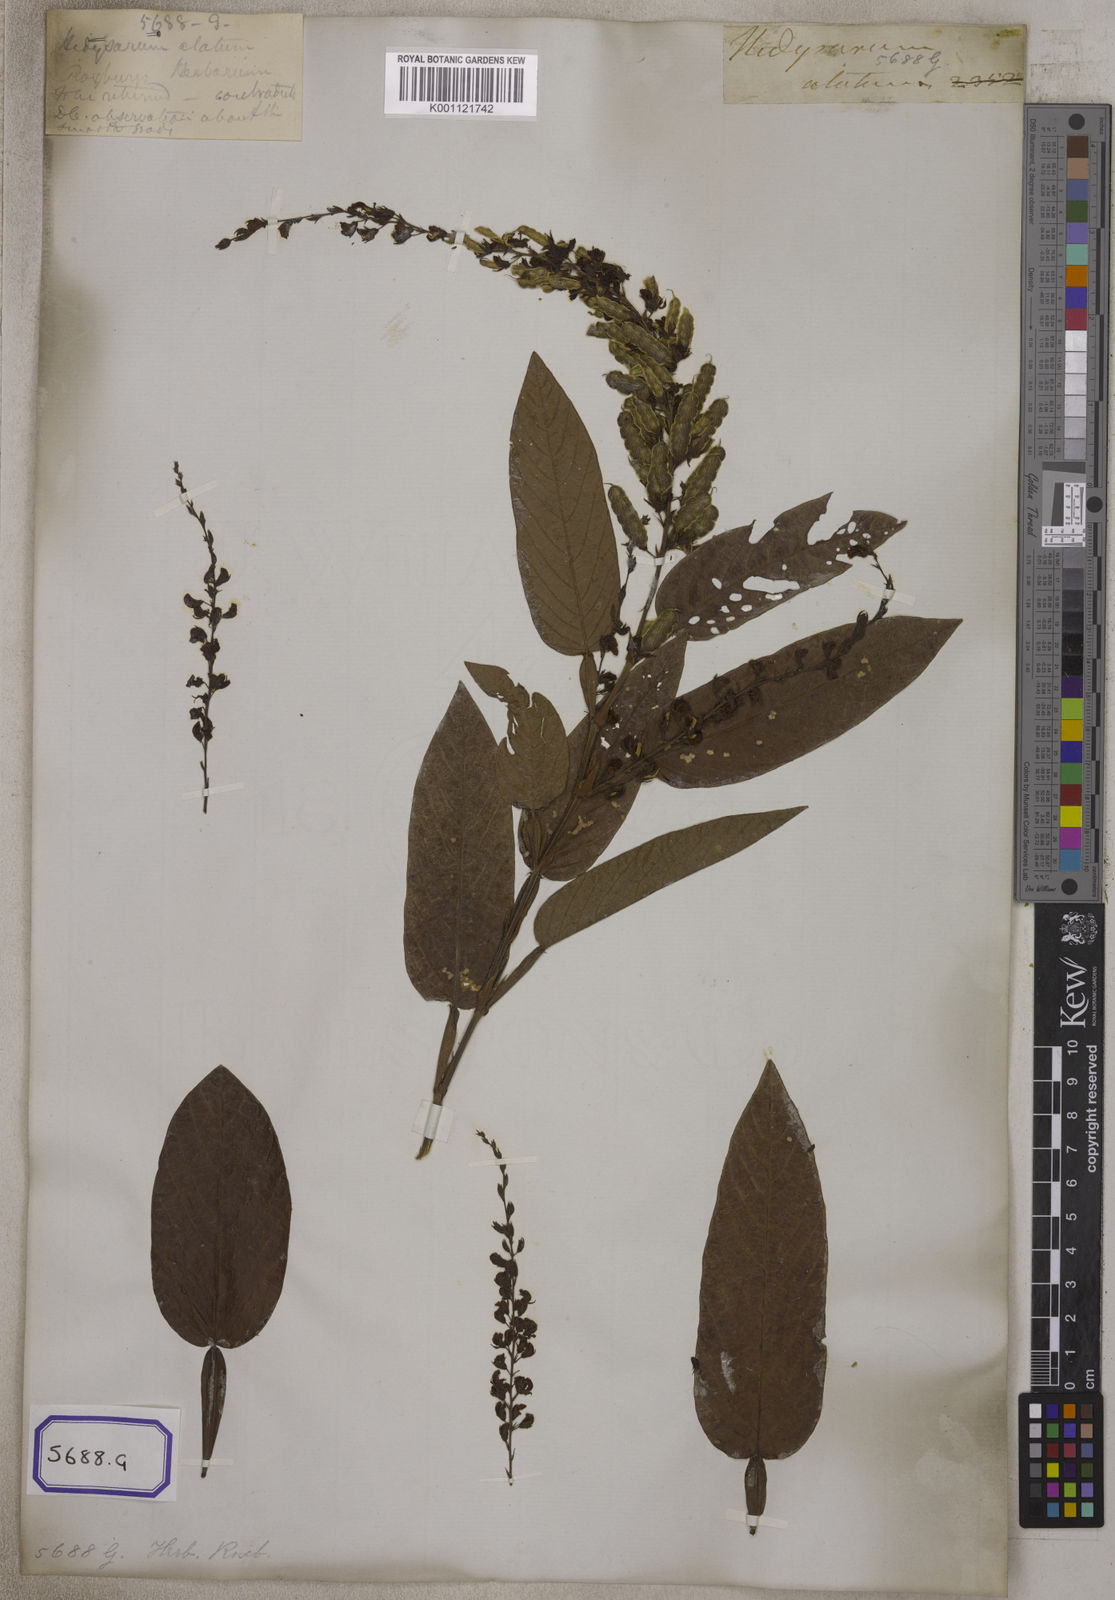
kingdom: Plantae
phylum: Tracheophyta
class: Magnoliopsida
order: Fabales
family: Fabaceae
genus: Tadehagi
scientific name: Tadehagi triquetrum
